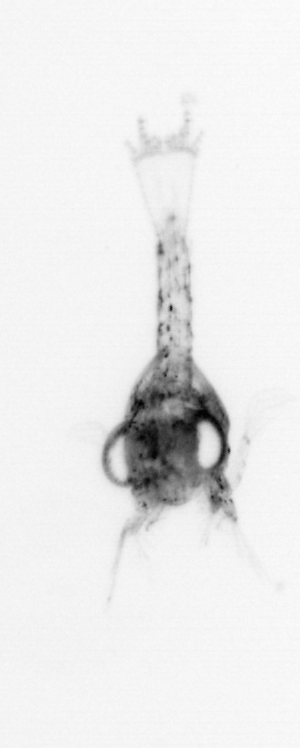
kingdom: Animalia
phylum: Arthropoda
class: Malacostraca
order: Decapoda
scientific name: Decapoda
